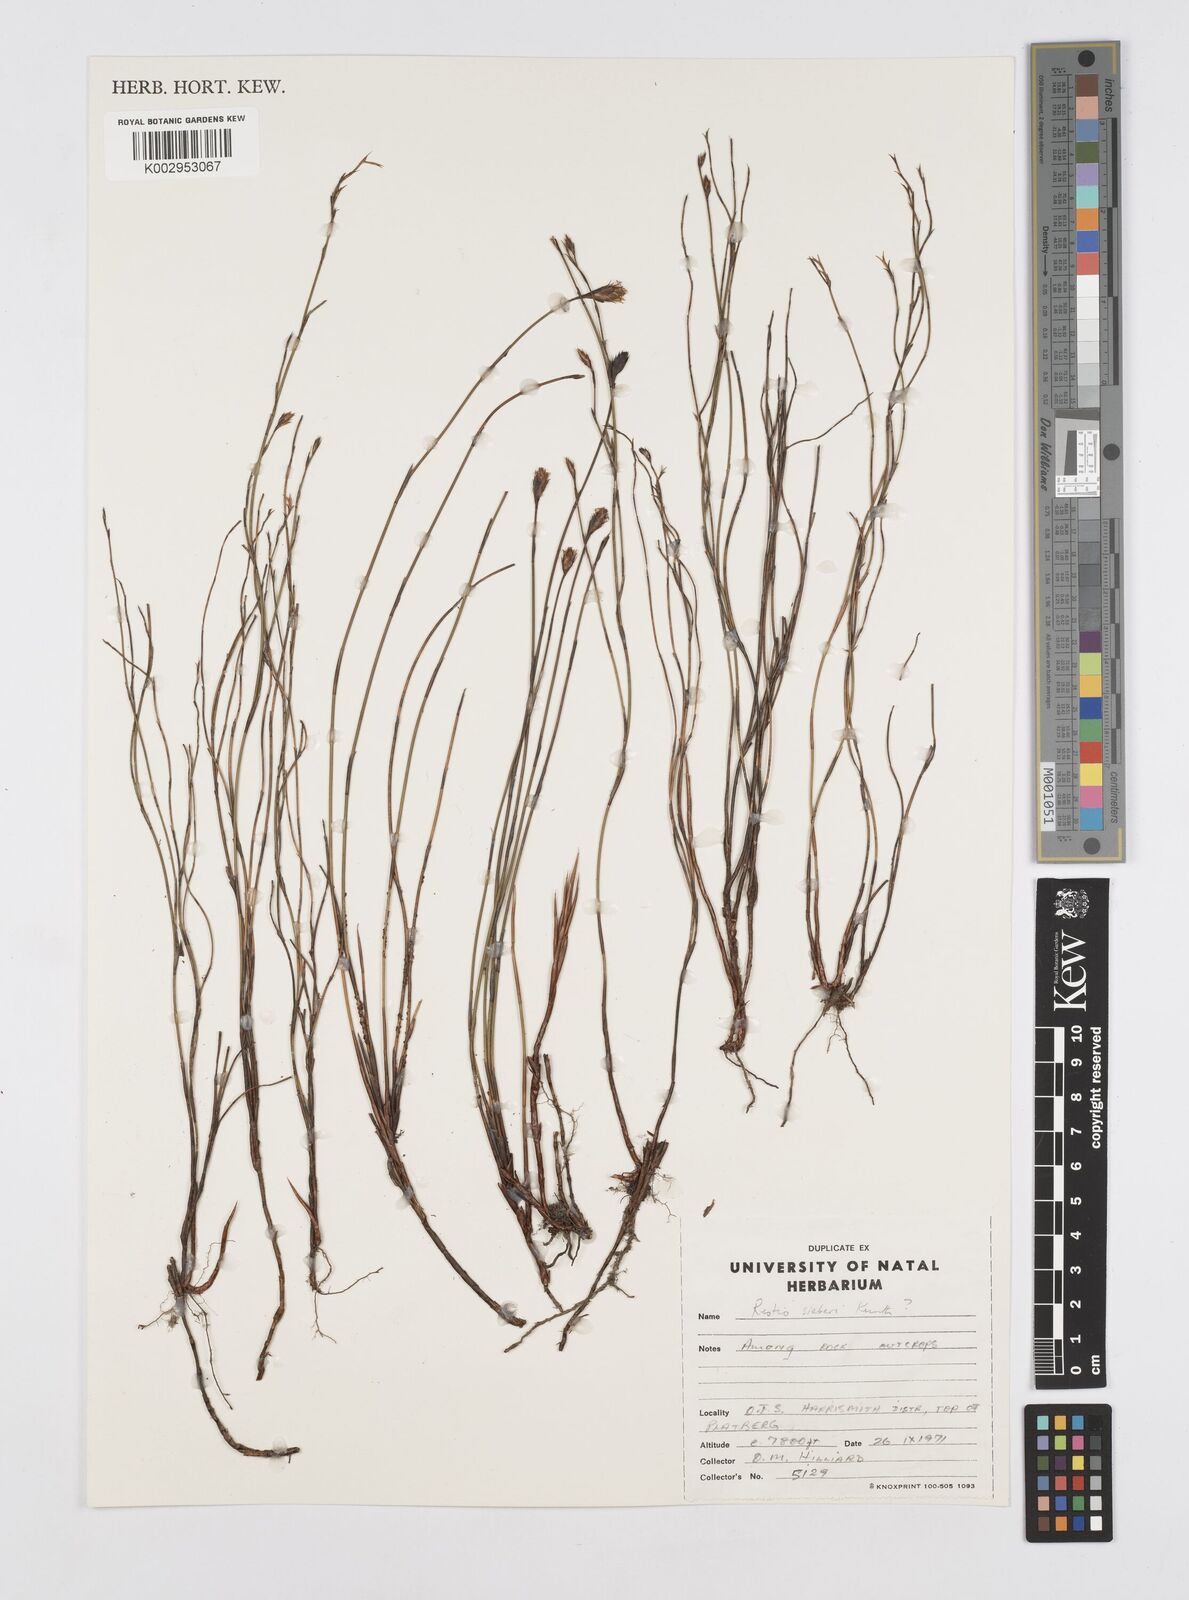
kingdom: Plantae
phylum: Tracheophyta
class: Liliopsida
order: Poales
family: Restionaceae
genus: Restio
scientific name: Restio sieberi
